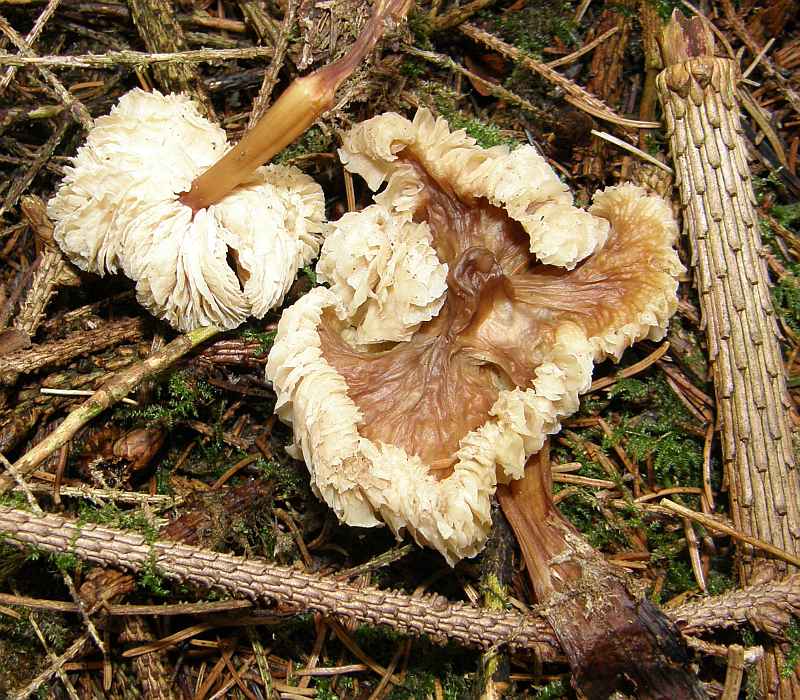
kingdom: Fungi
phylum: Basidiomycota
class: Agaricomycetes
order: Agaricales
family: Omphalotaceae
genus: Rhodocollybia
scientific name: Rhodocollybia asema
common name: horngrå fladhat
